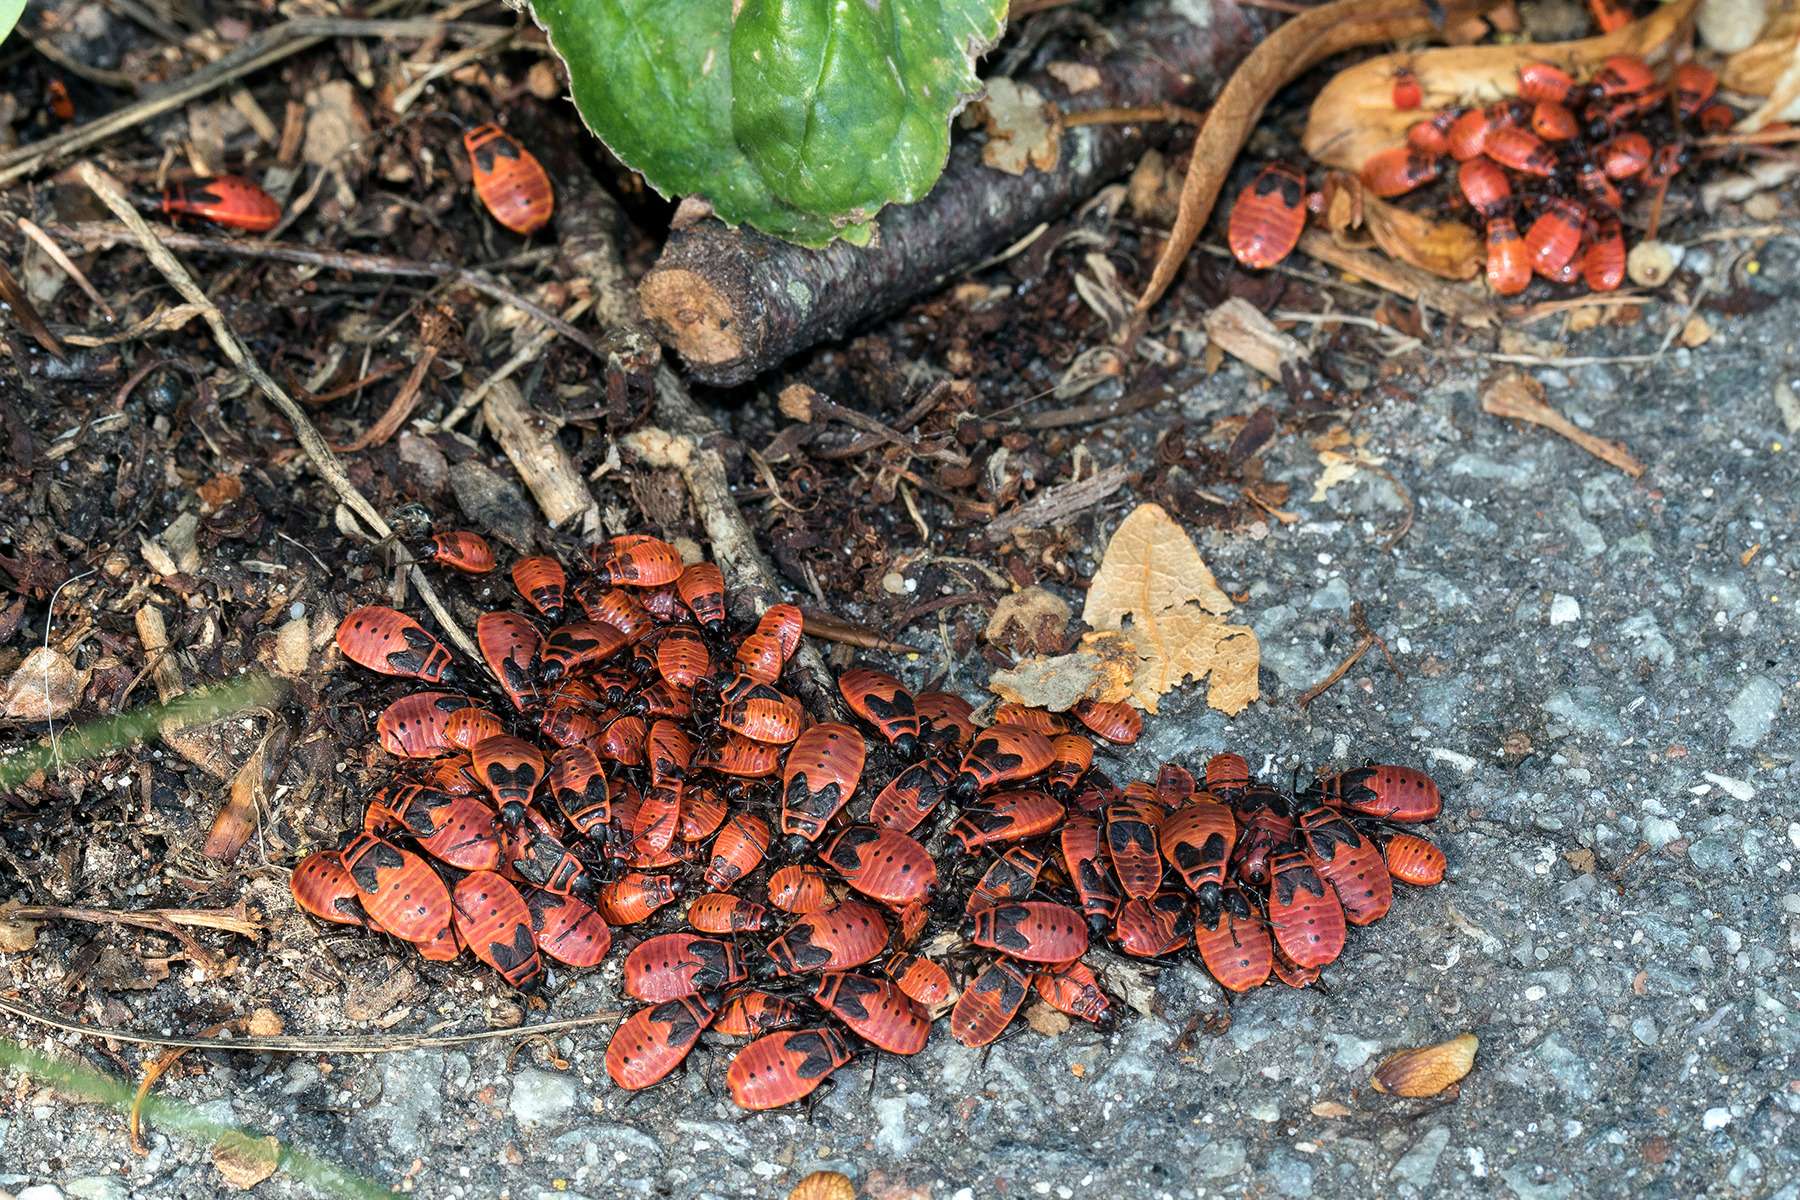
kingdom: Animalia
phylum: Arthropoda
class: Insecta
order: Hemiptera
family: Pyrrhocoridae
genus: Pyrrhocoris
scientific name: Pyrrhocoris apterus
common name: Ildtæge
